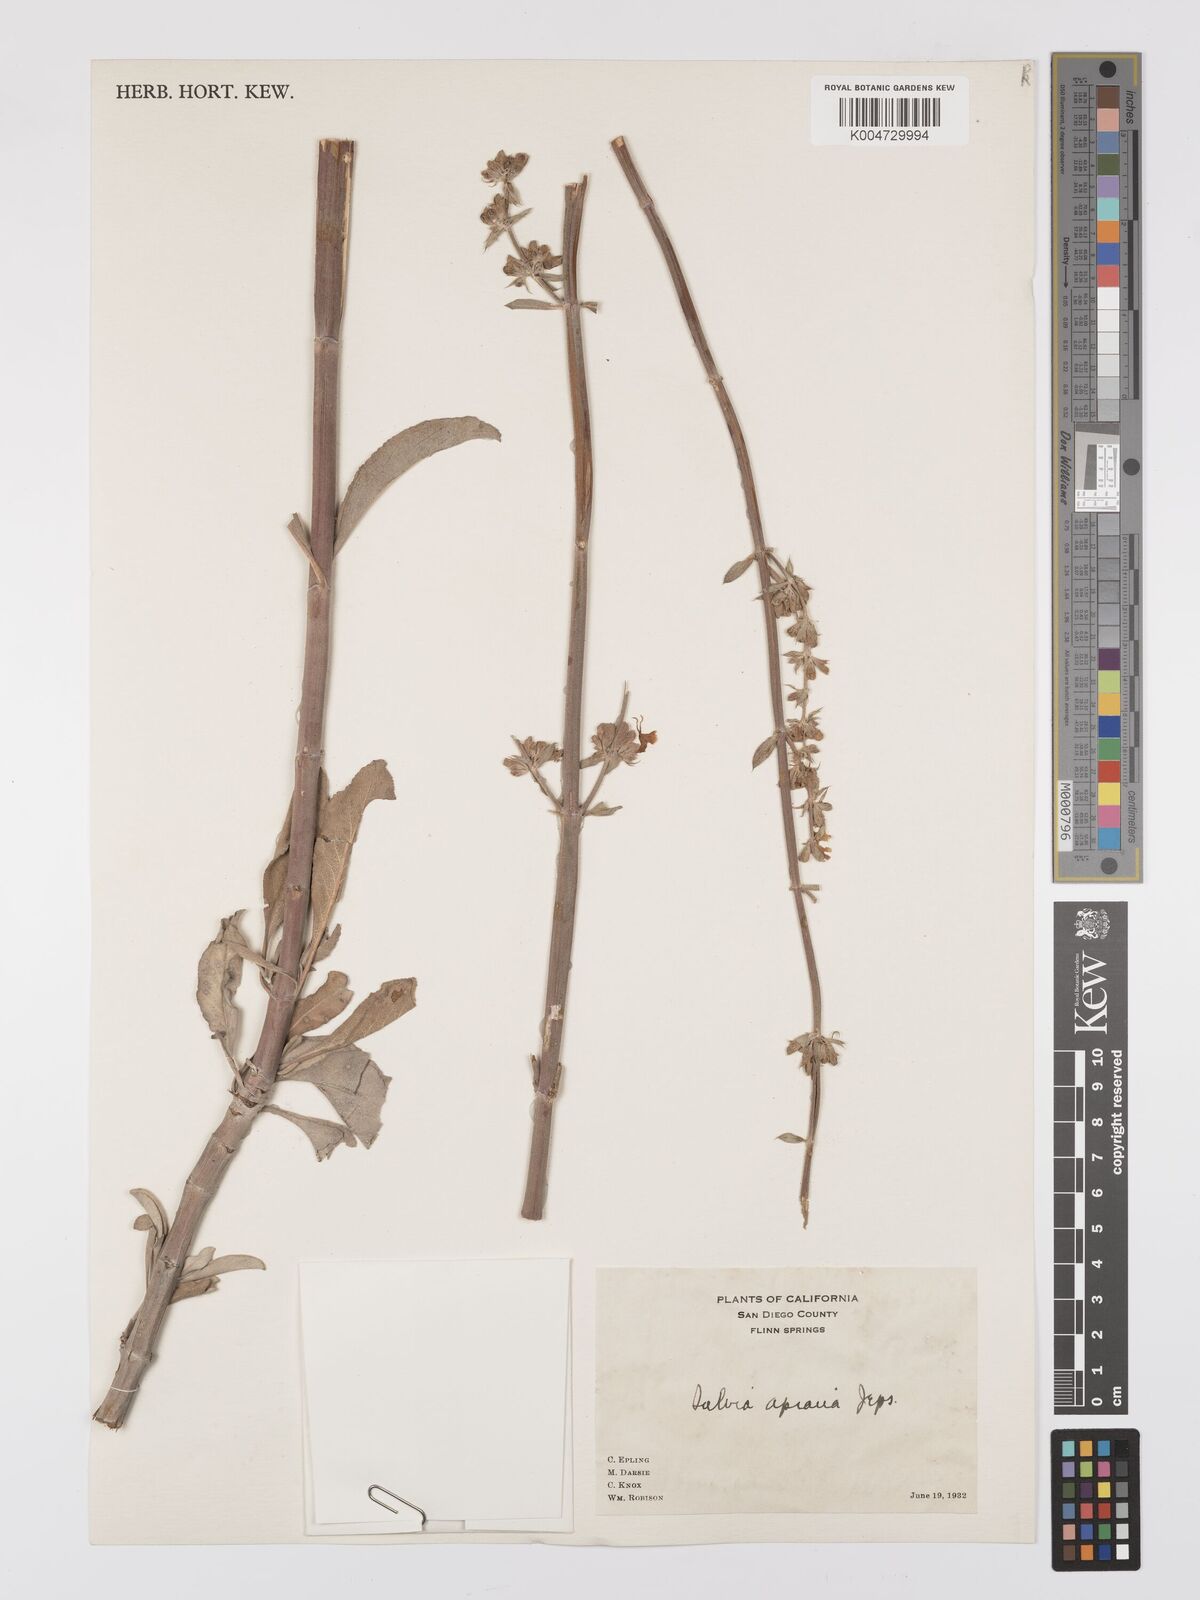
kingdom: Plantae
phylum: Tracheophyta
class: Magnoliopsida
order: Lamiales
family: Lamiaceae
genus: Salvia
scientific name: Salvia apiana
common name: White sage
